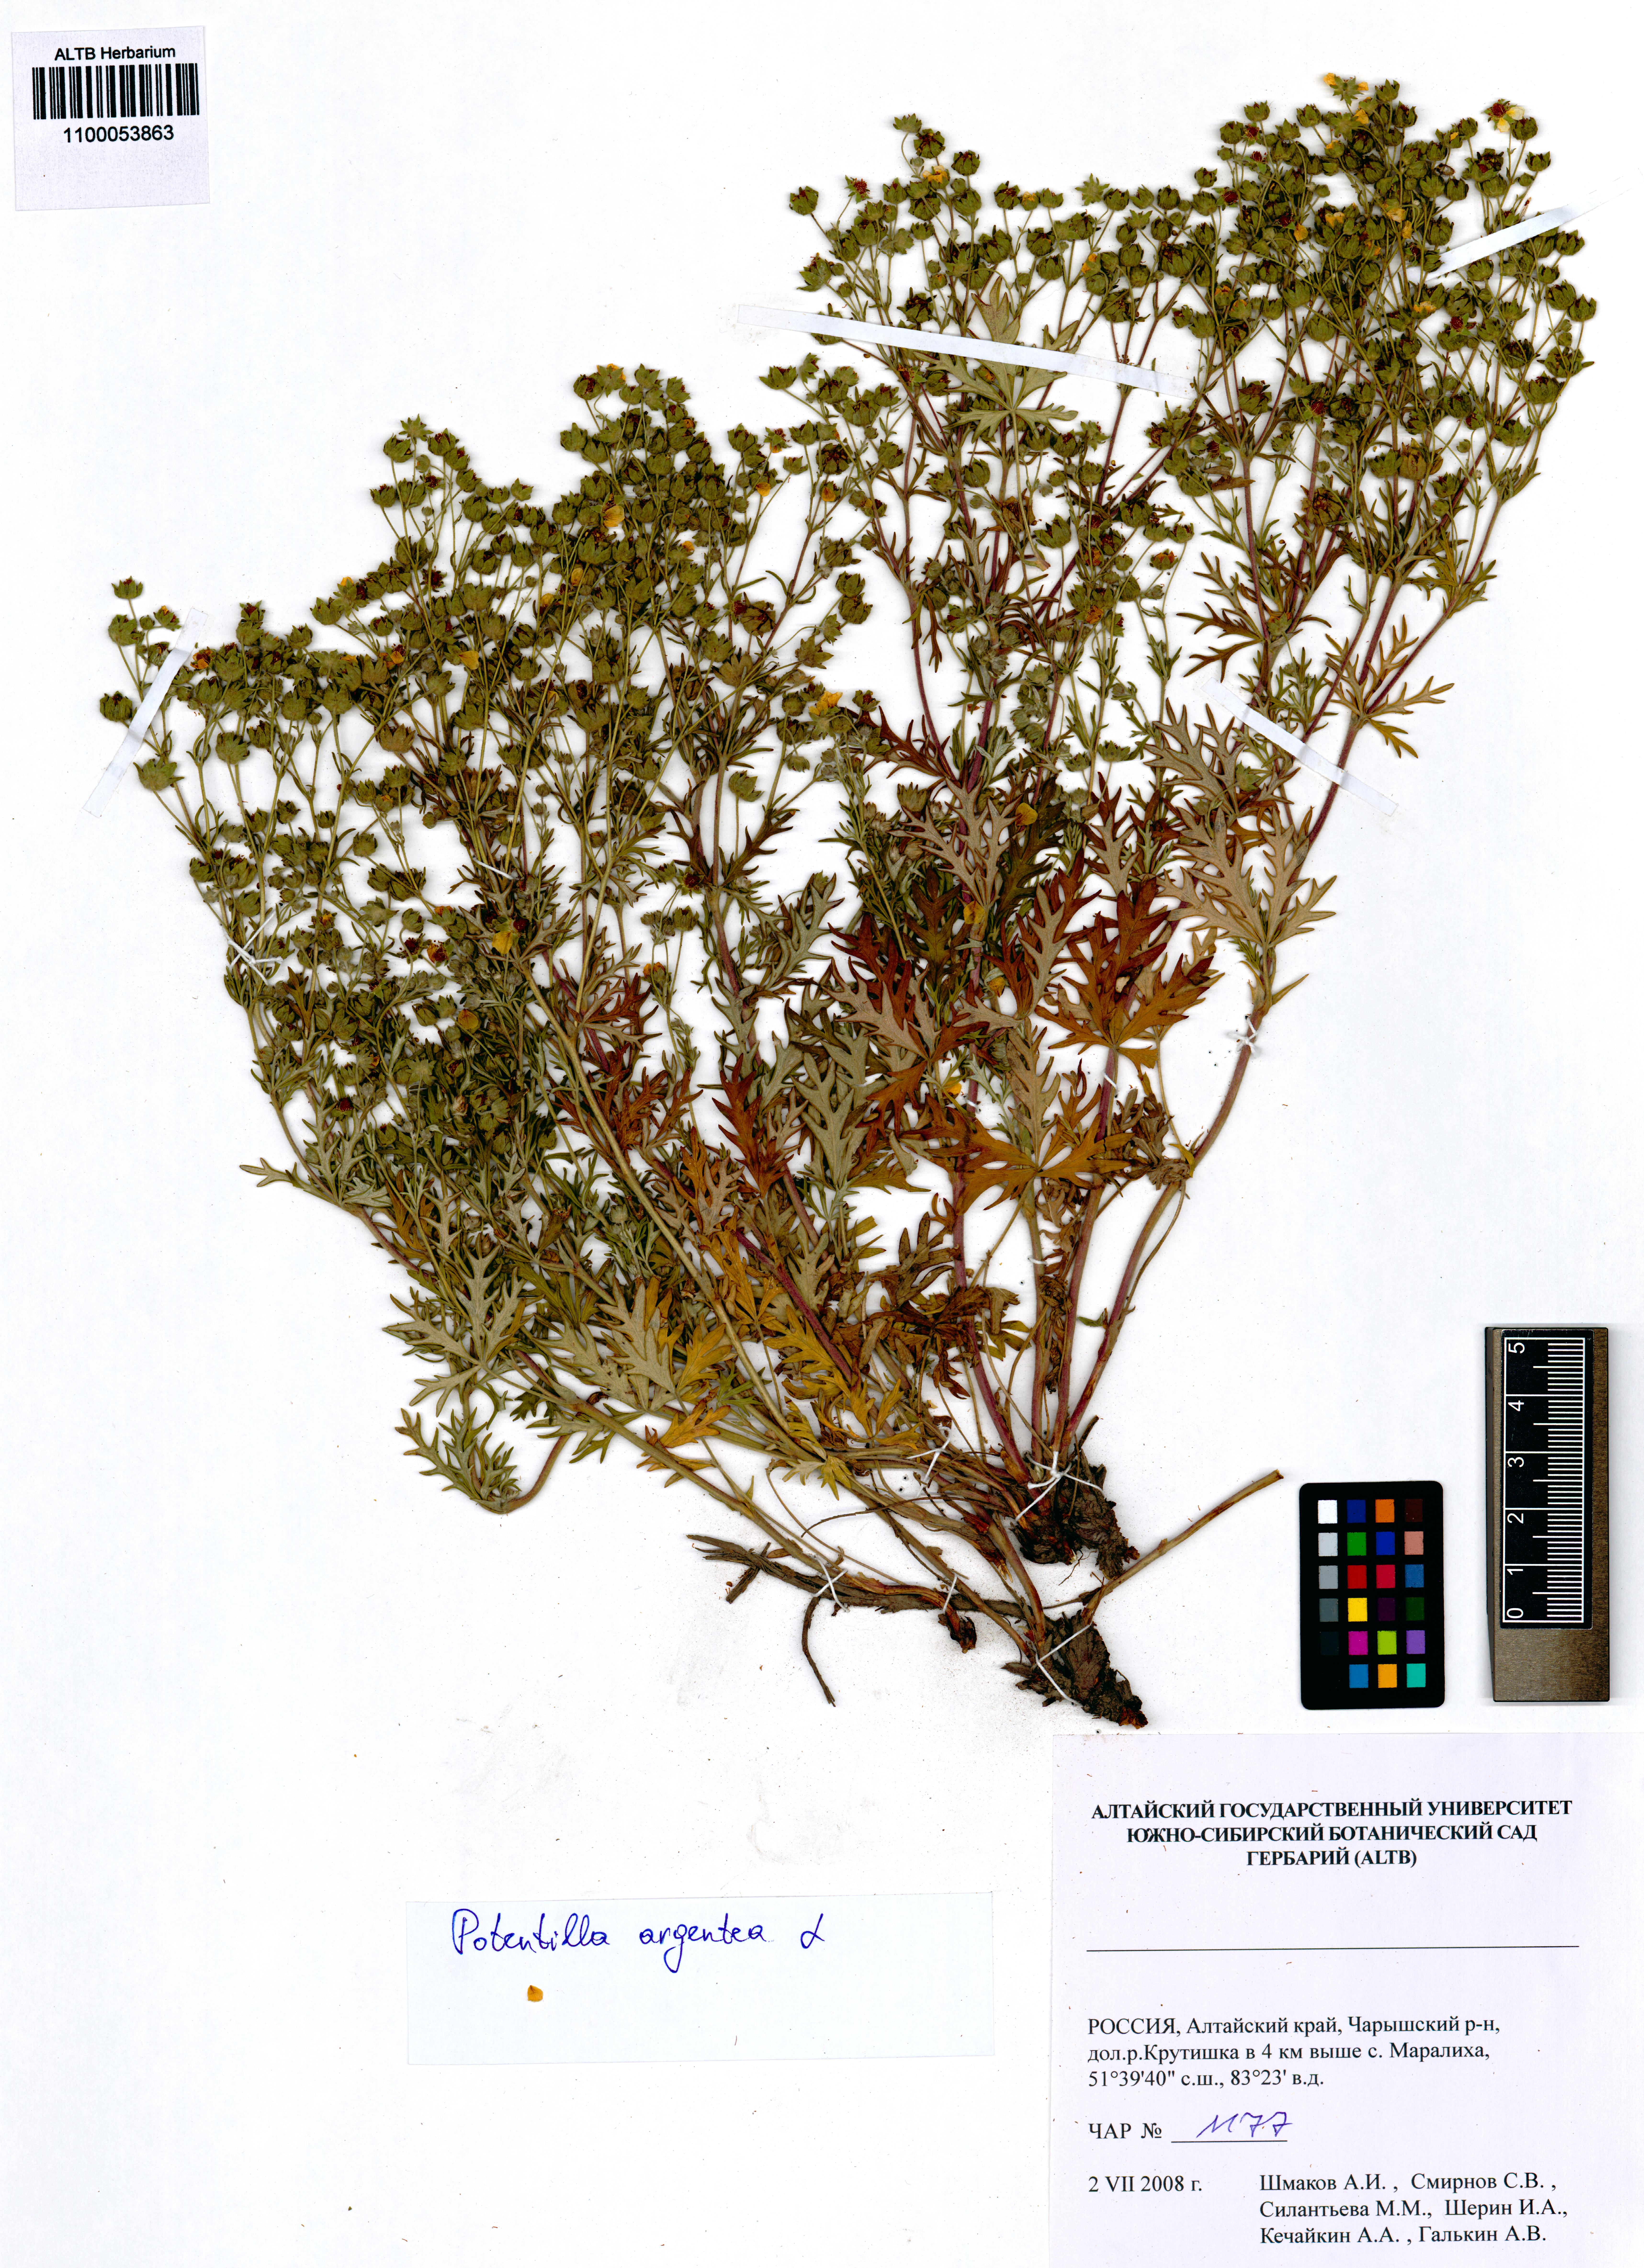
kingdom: Plantae
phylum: Tracheophyta
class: Magnoliopsida
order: Rosales
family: Rosaceae
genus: Potentilla
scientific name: Potentilla argentea
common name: Hoary cinquefoil
